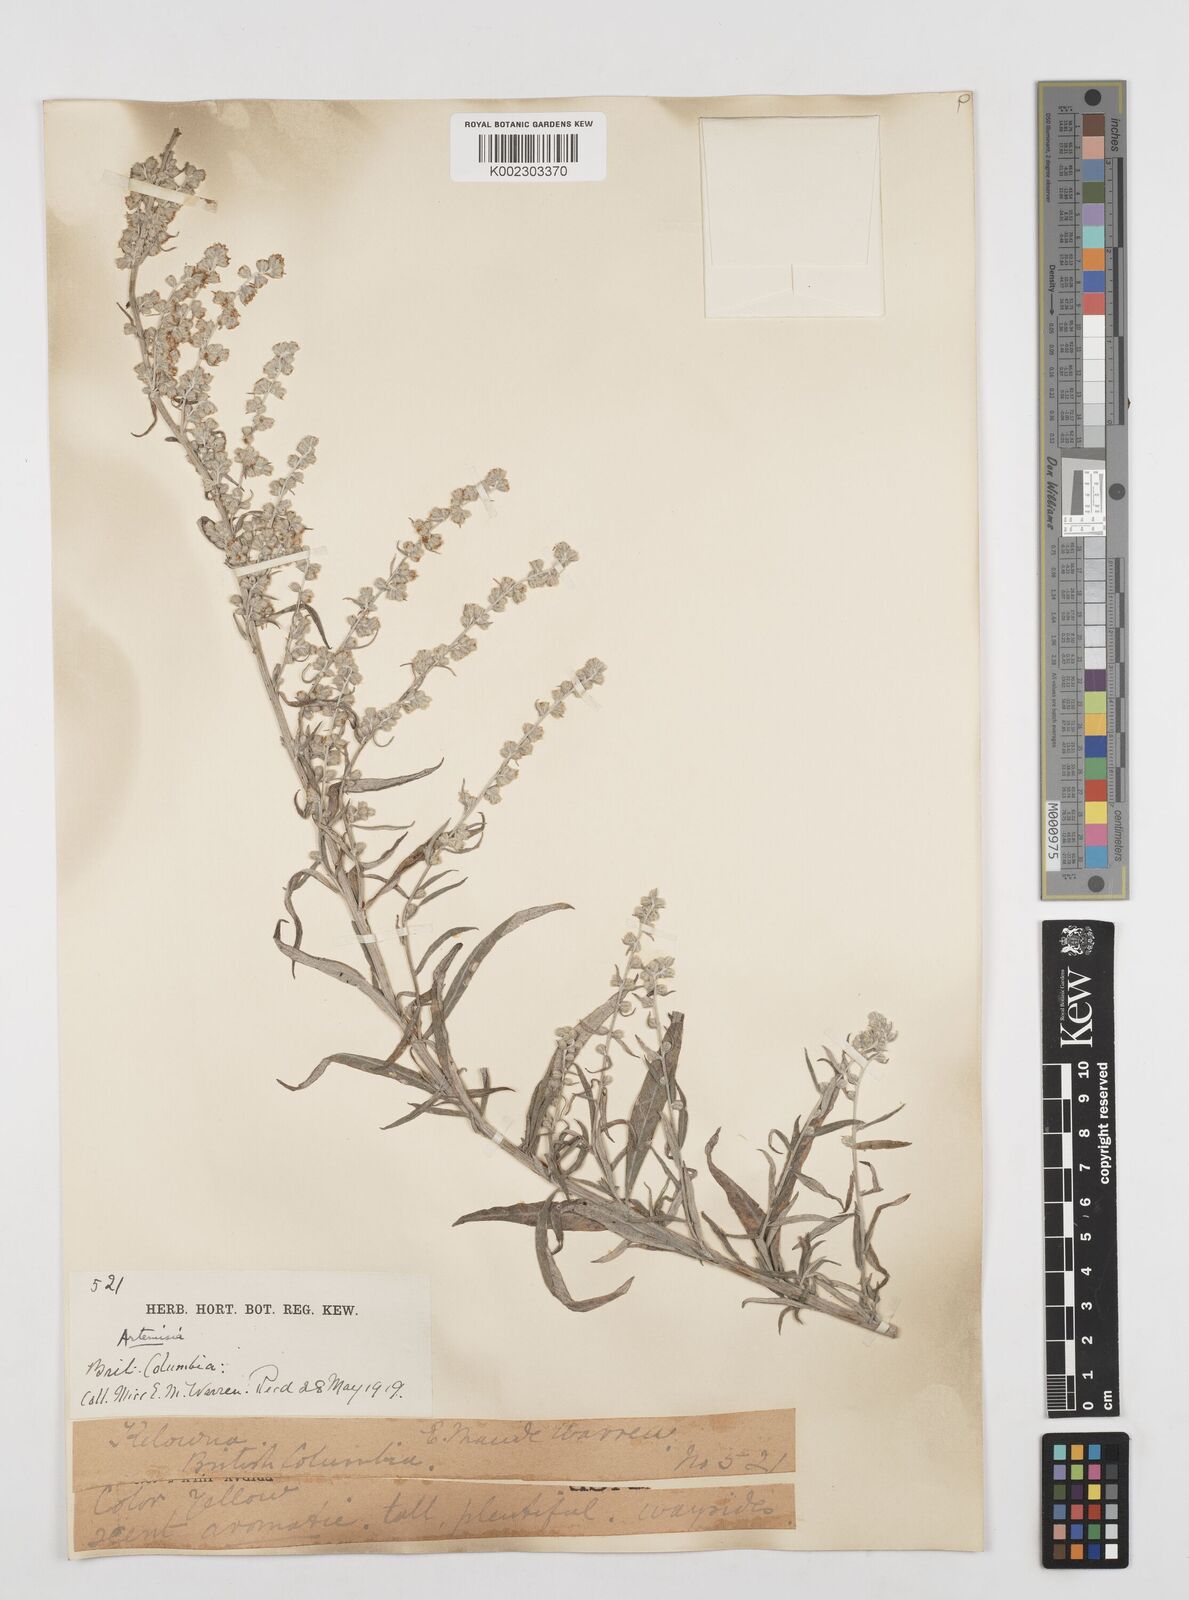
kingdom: Plantae
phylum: Tracheophyta
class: Magnoliopsida
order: Asterales
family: Asteraceae
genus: Artemisia
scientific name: Artemisia
